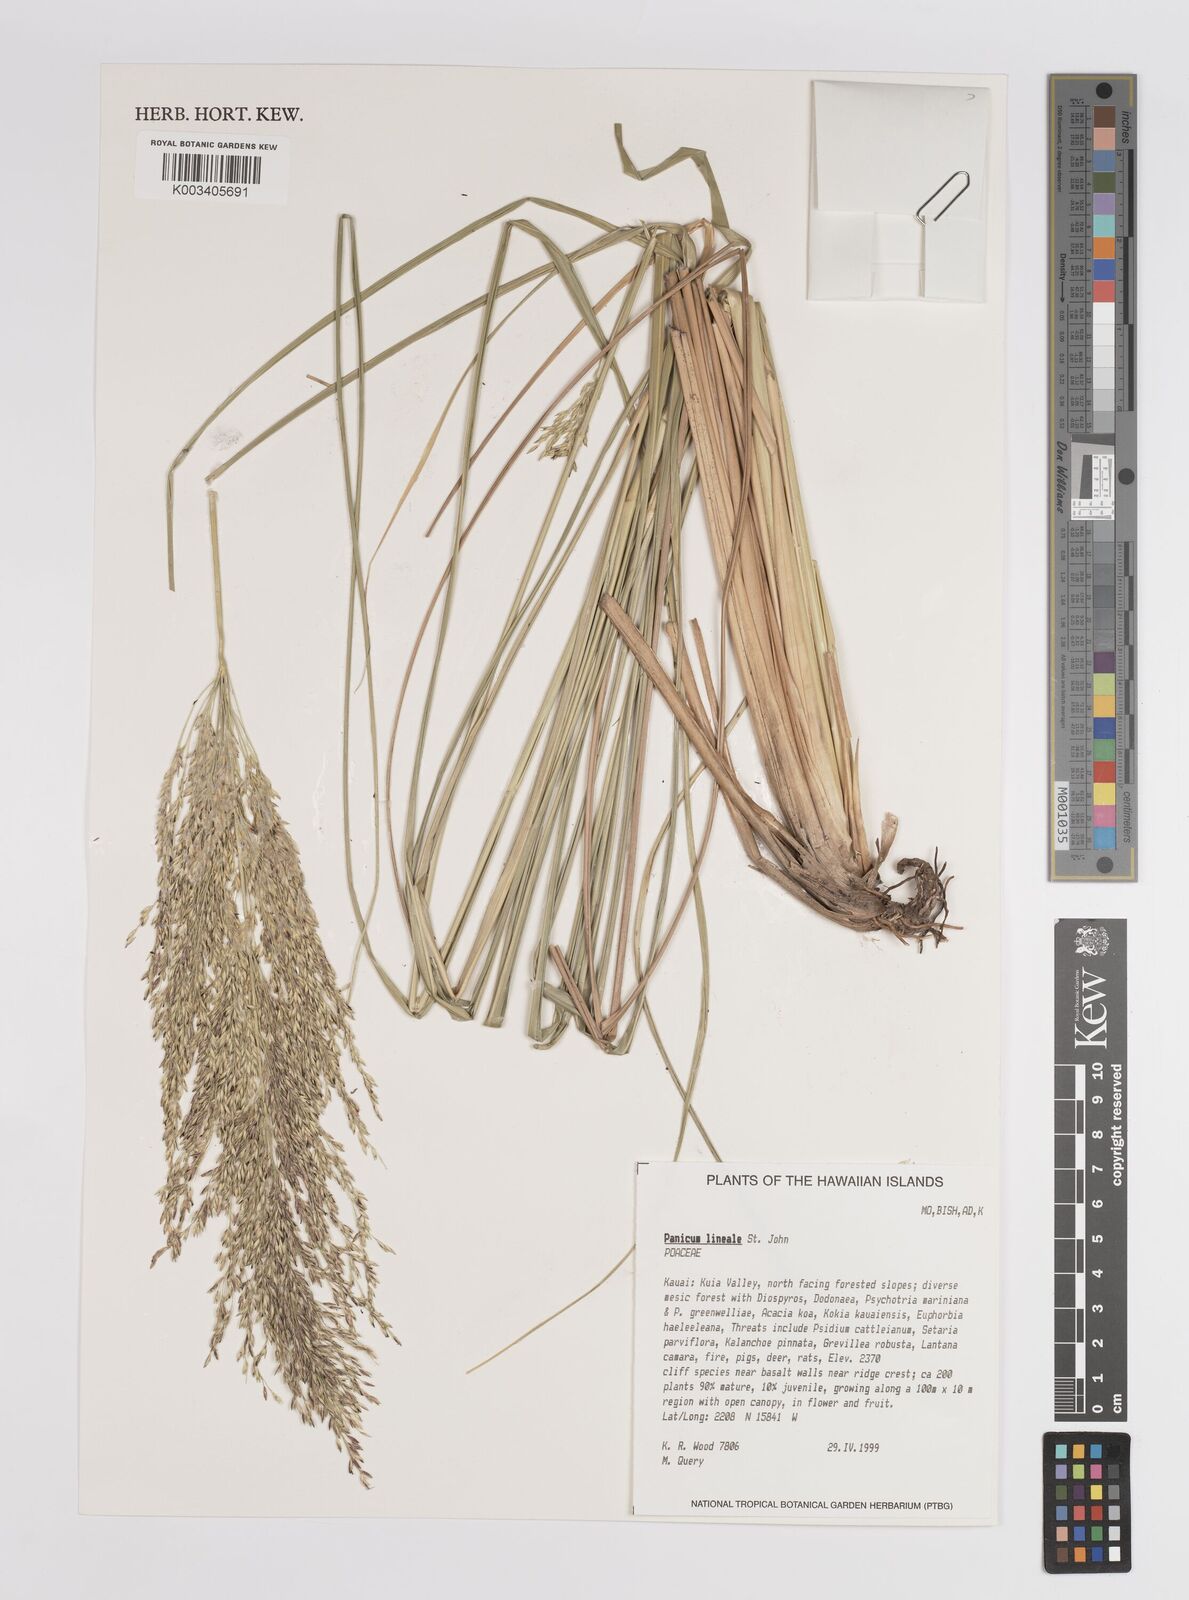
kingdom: Plantae
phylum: Tracheophyta
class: Liliopsida
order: Poales
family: Poaceae
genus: Panicum
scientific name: Panicum lineale
